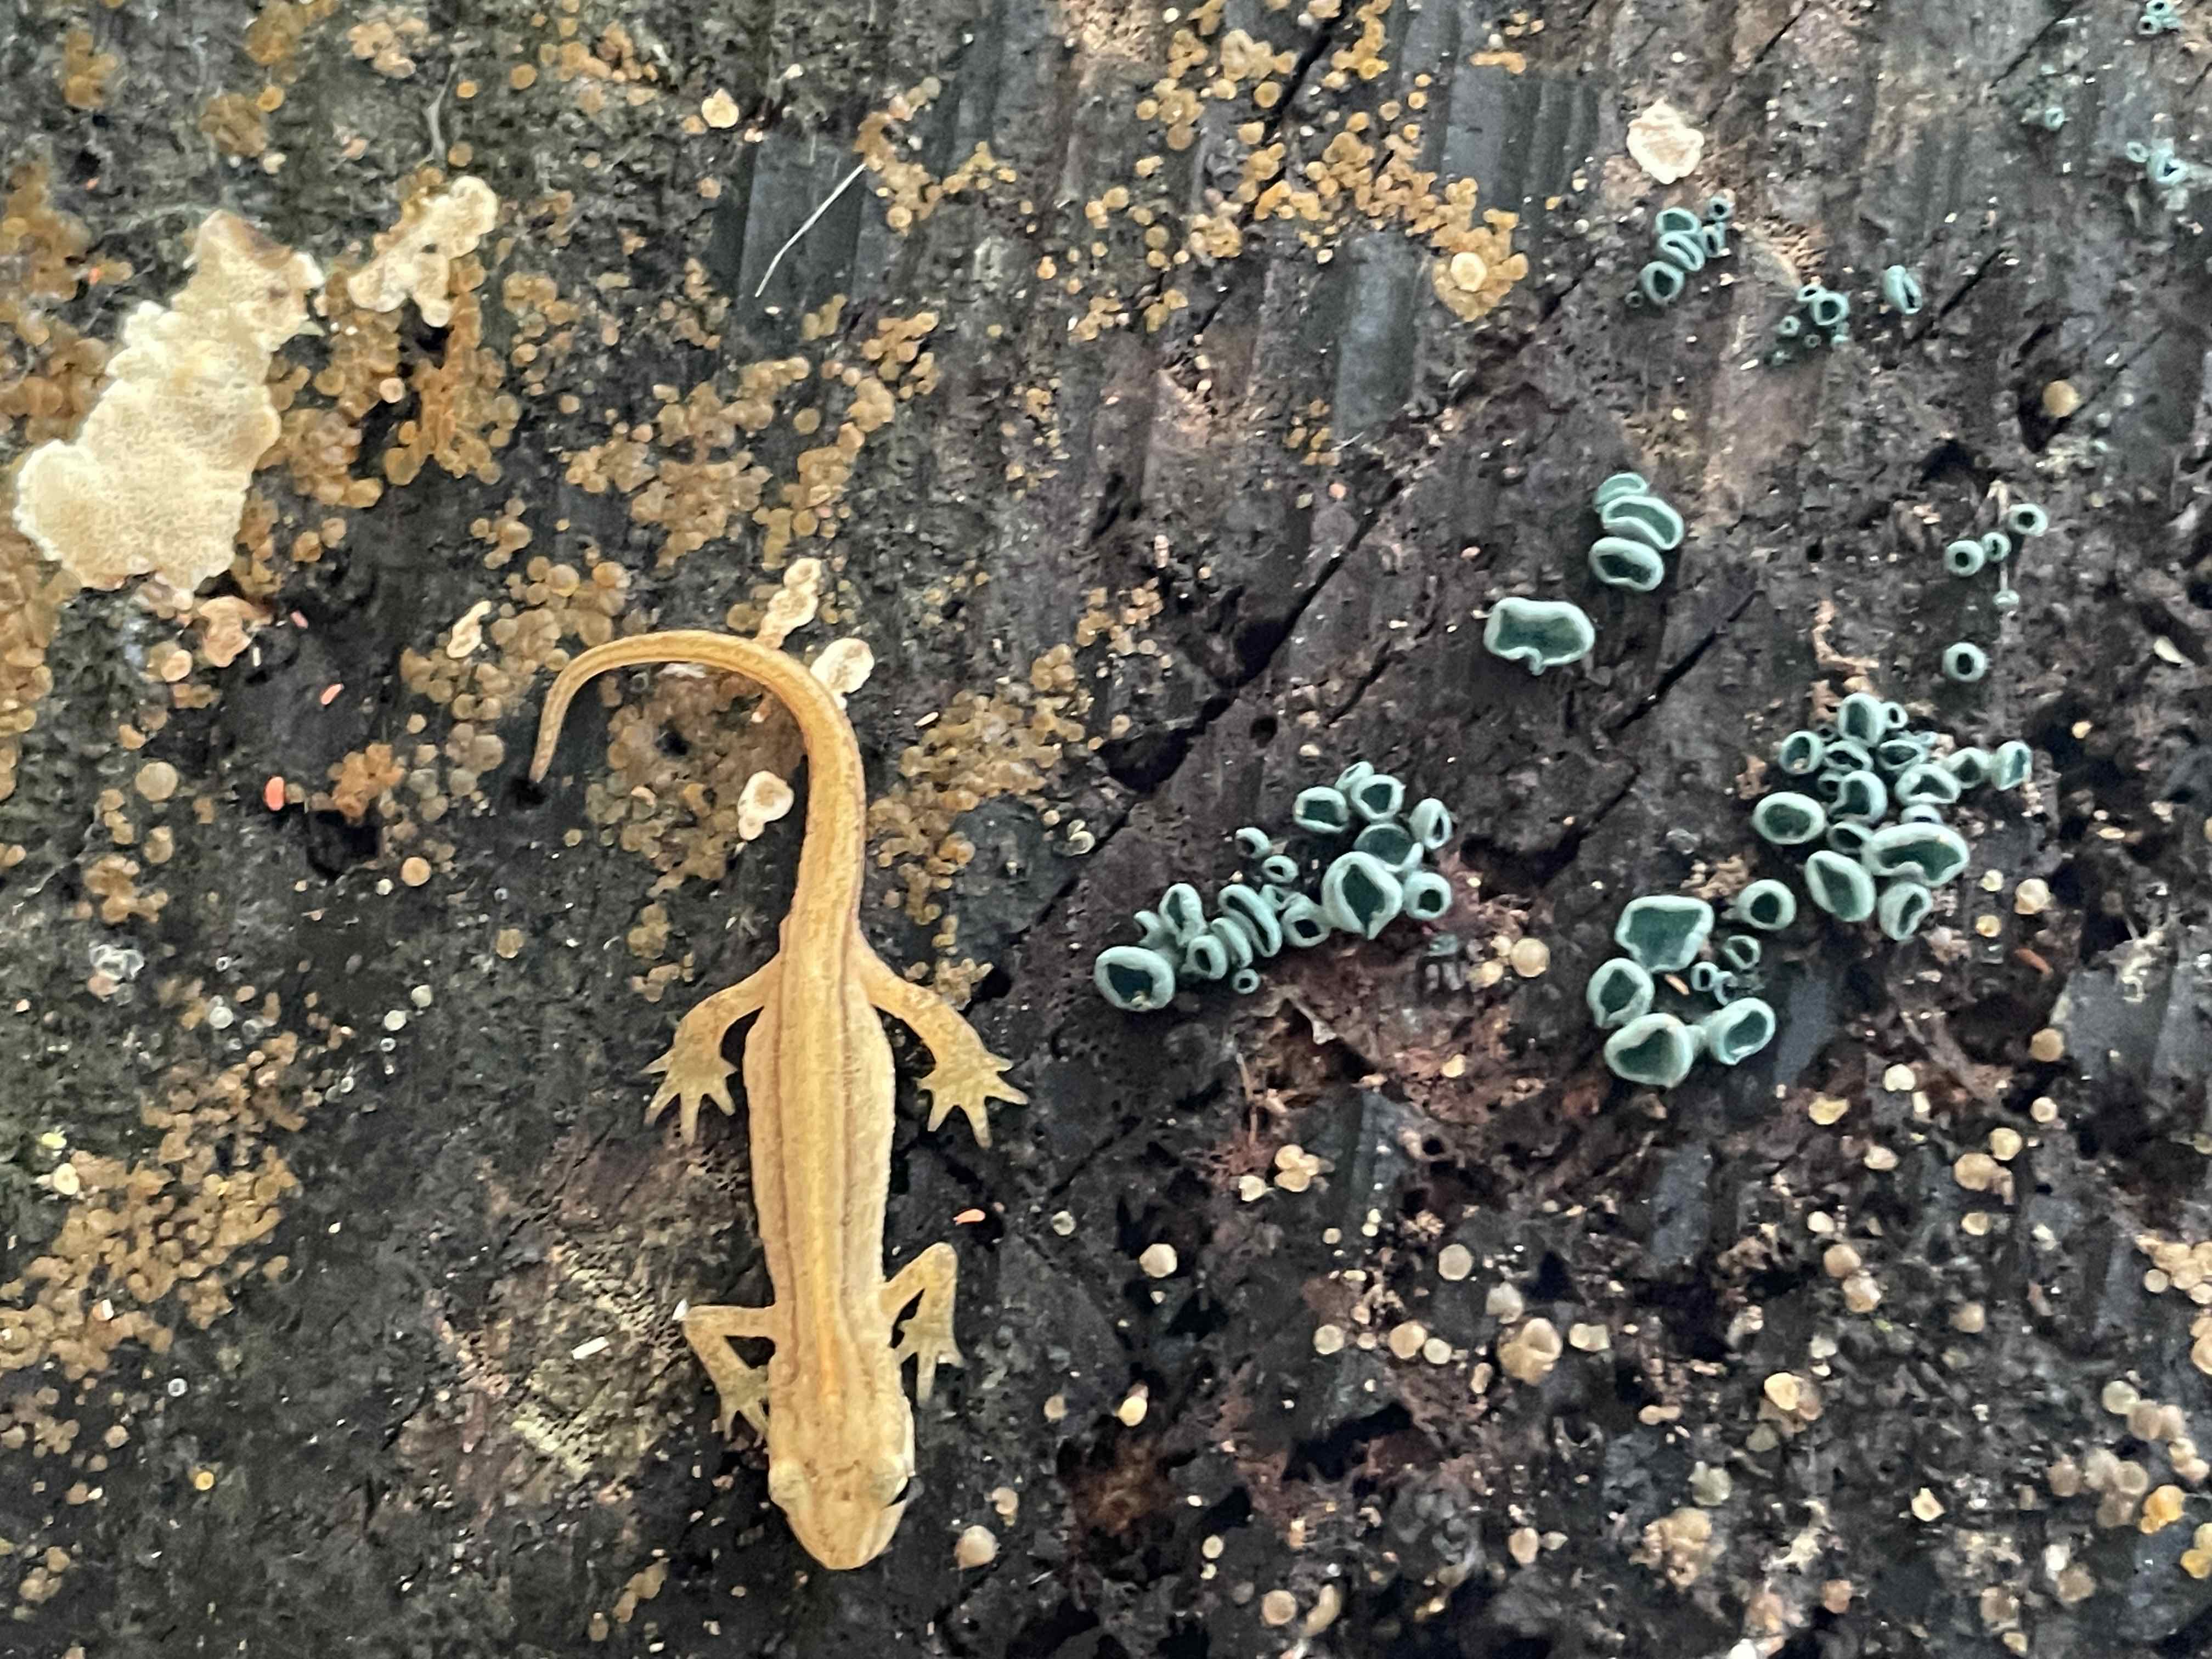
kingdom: Fungi
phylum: Ascomycota
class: Leotiomycetes
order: Helotiales
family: Chlorociboriaceae
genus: Chlorociboria
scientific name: Chlorociboria aeruginascens
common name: almindelig grønskive
